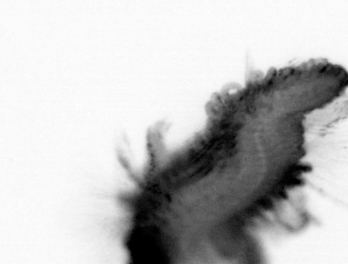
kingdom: Animalia
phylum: Annelida
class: Polychaeta
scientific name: Polychaeta
